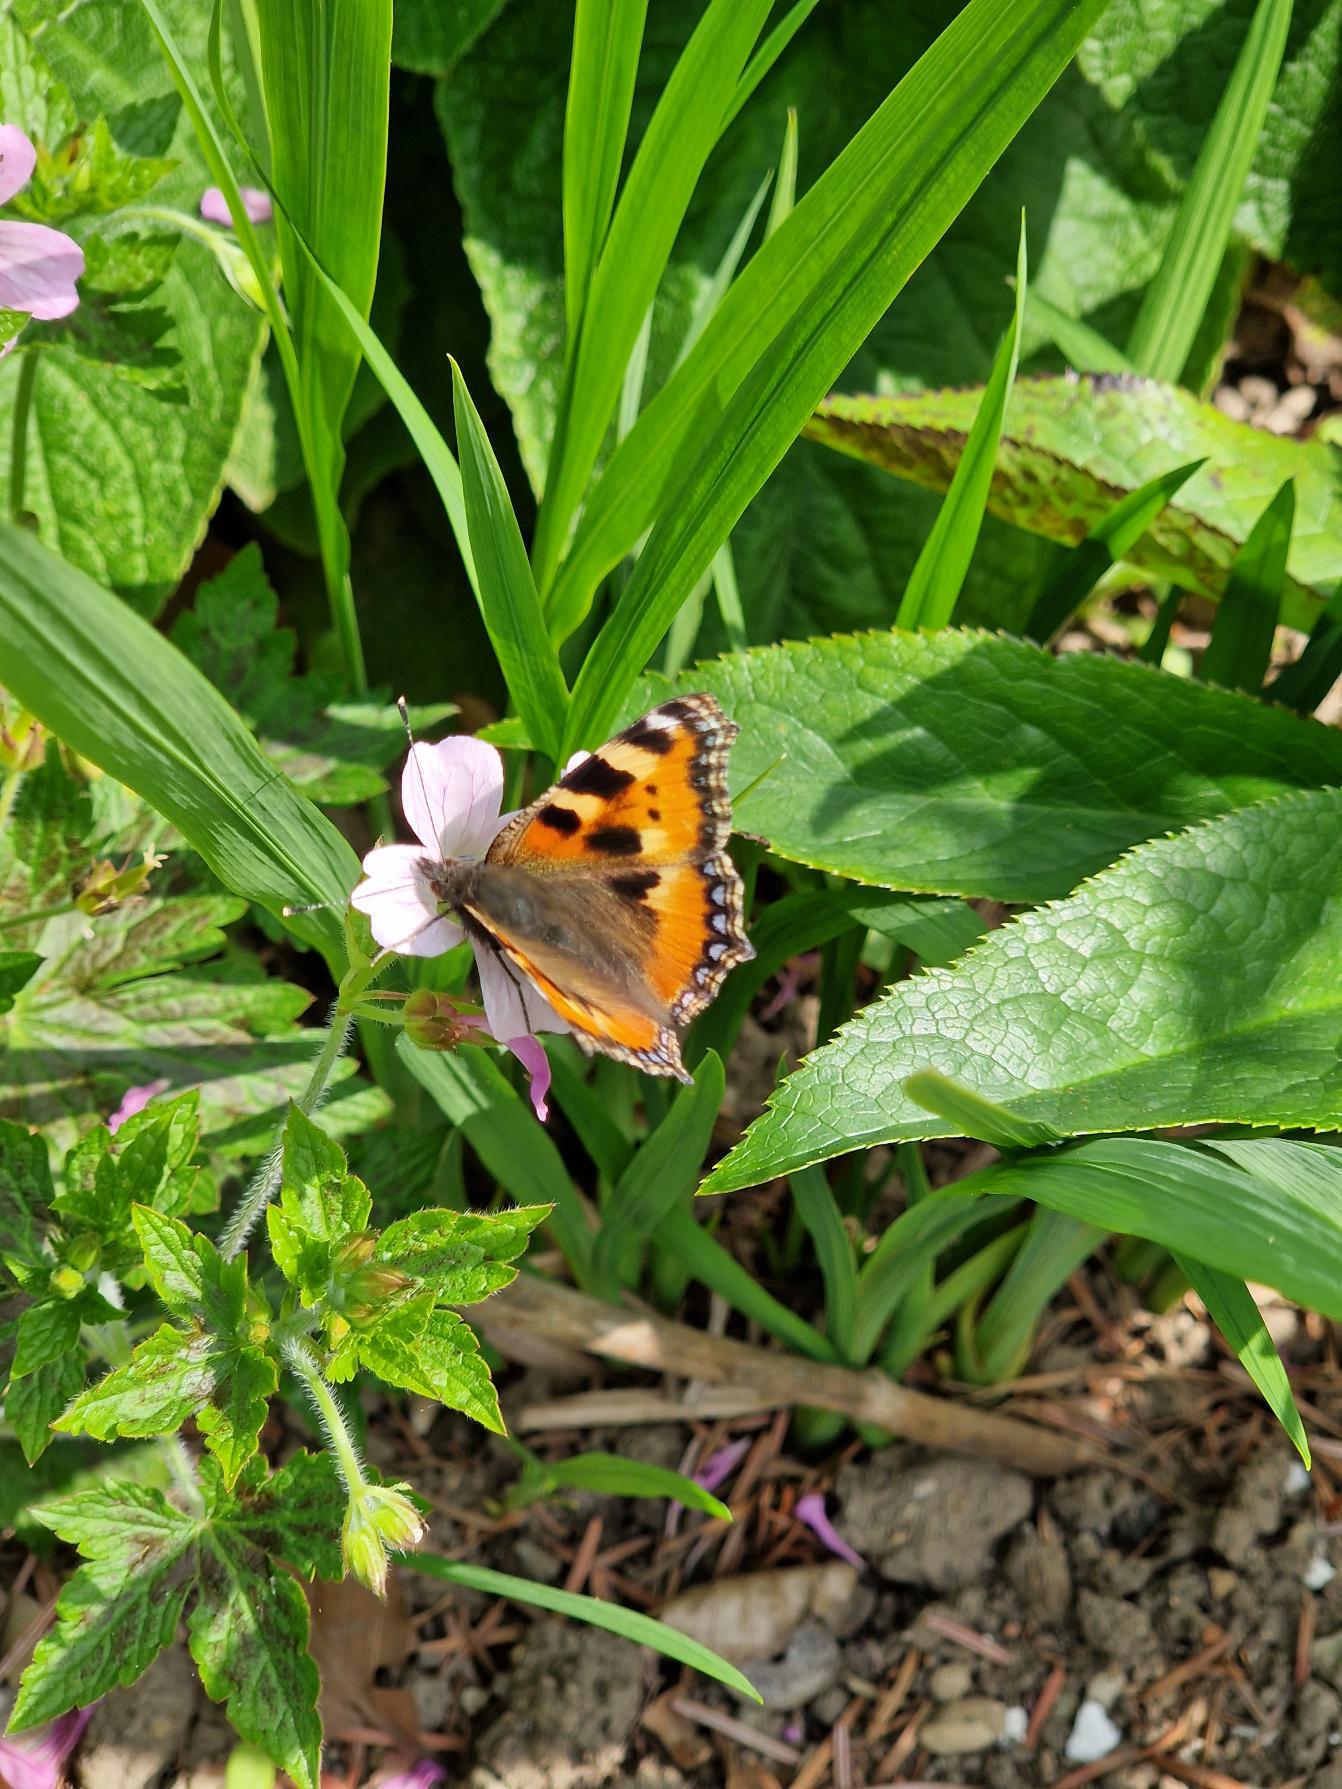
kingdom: Animalia
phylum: Arthropoda
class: Insecta
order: Lepidoptera
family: Nymphalidae
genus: Aglais
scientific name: Aglais urticae
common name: Nældens takvinge
